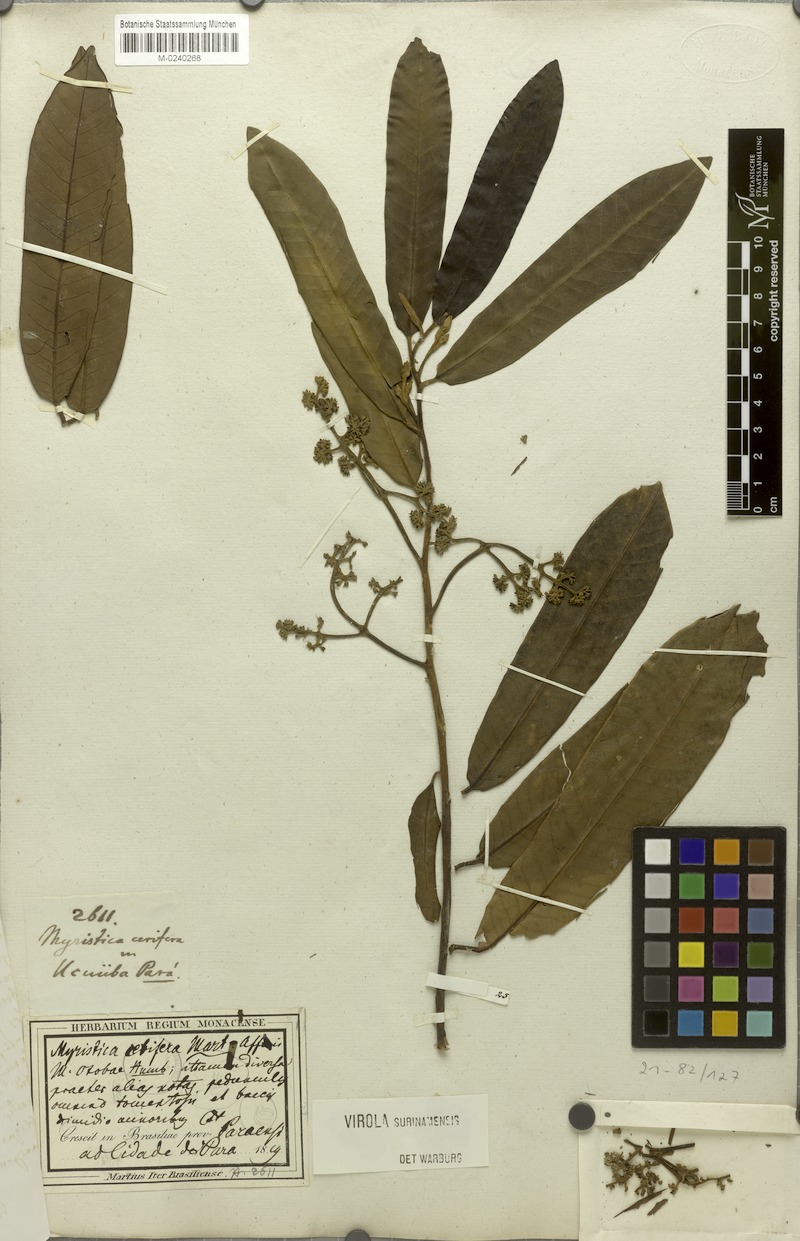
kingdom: Plantae
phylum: Tracheophyta
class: Magnoliopsida
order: Magnoliales
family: Myristicaceae
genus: Virola
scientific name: Virola surinamensis
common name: Baboonwood
